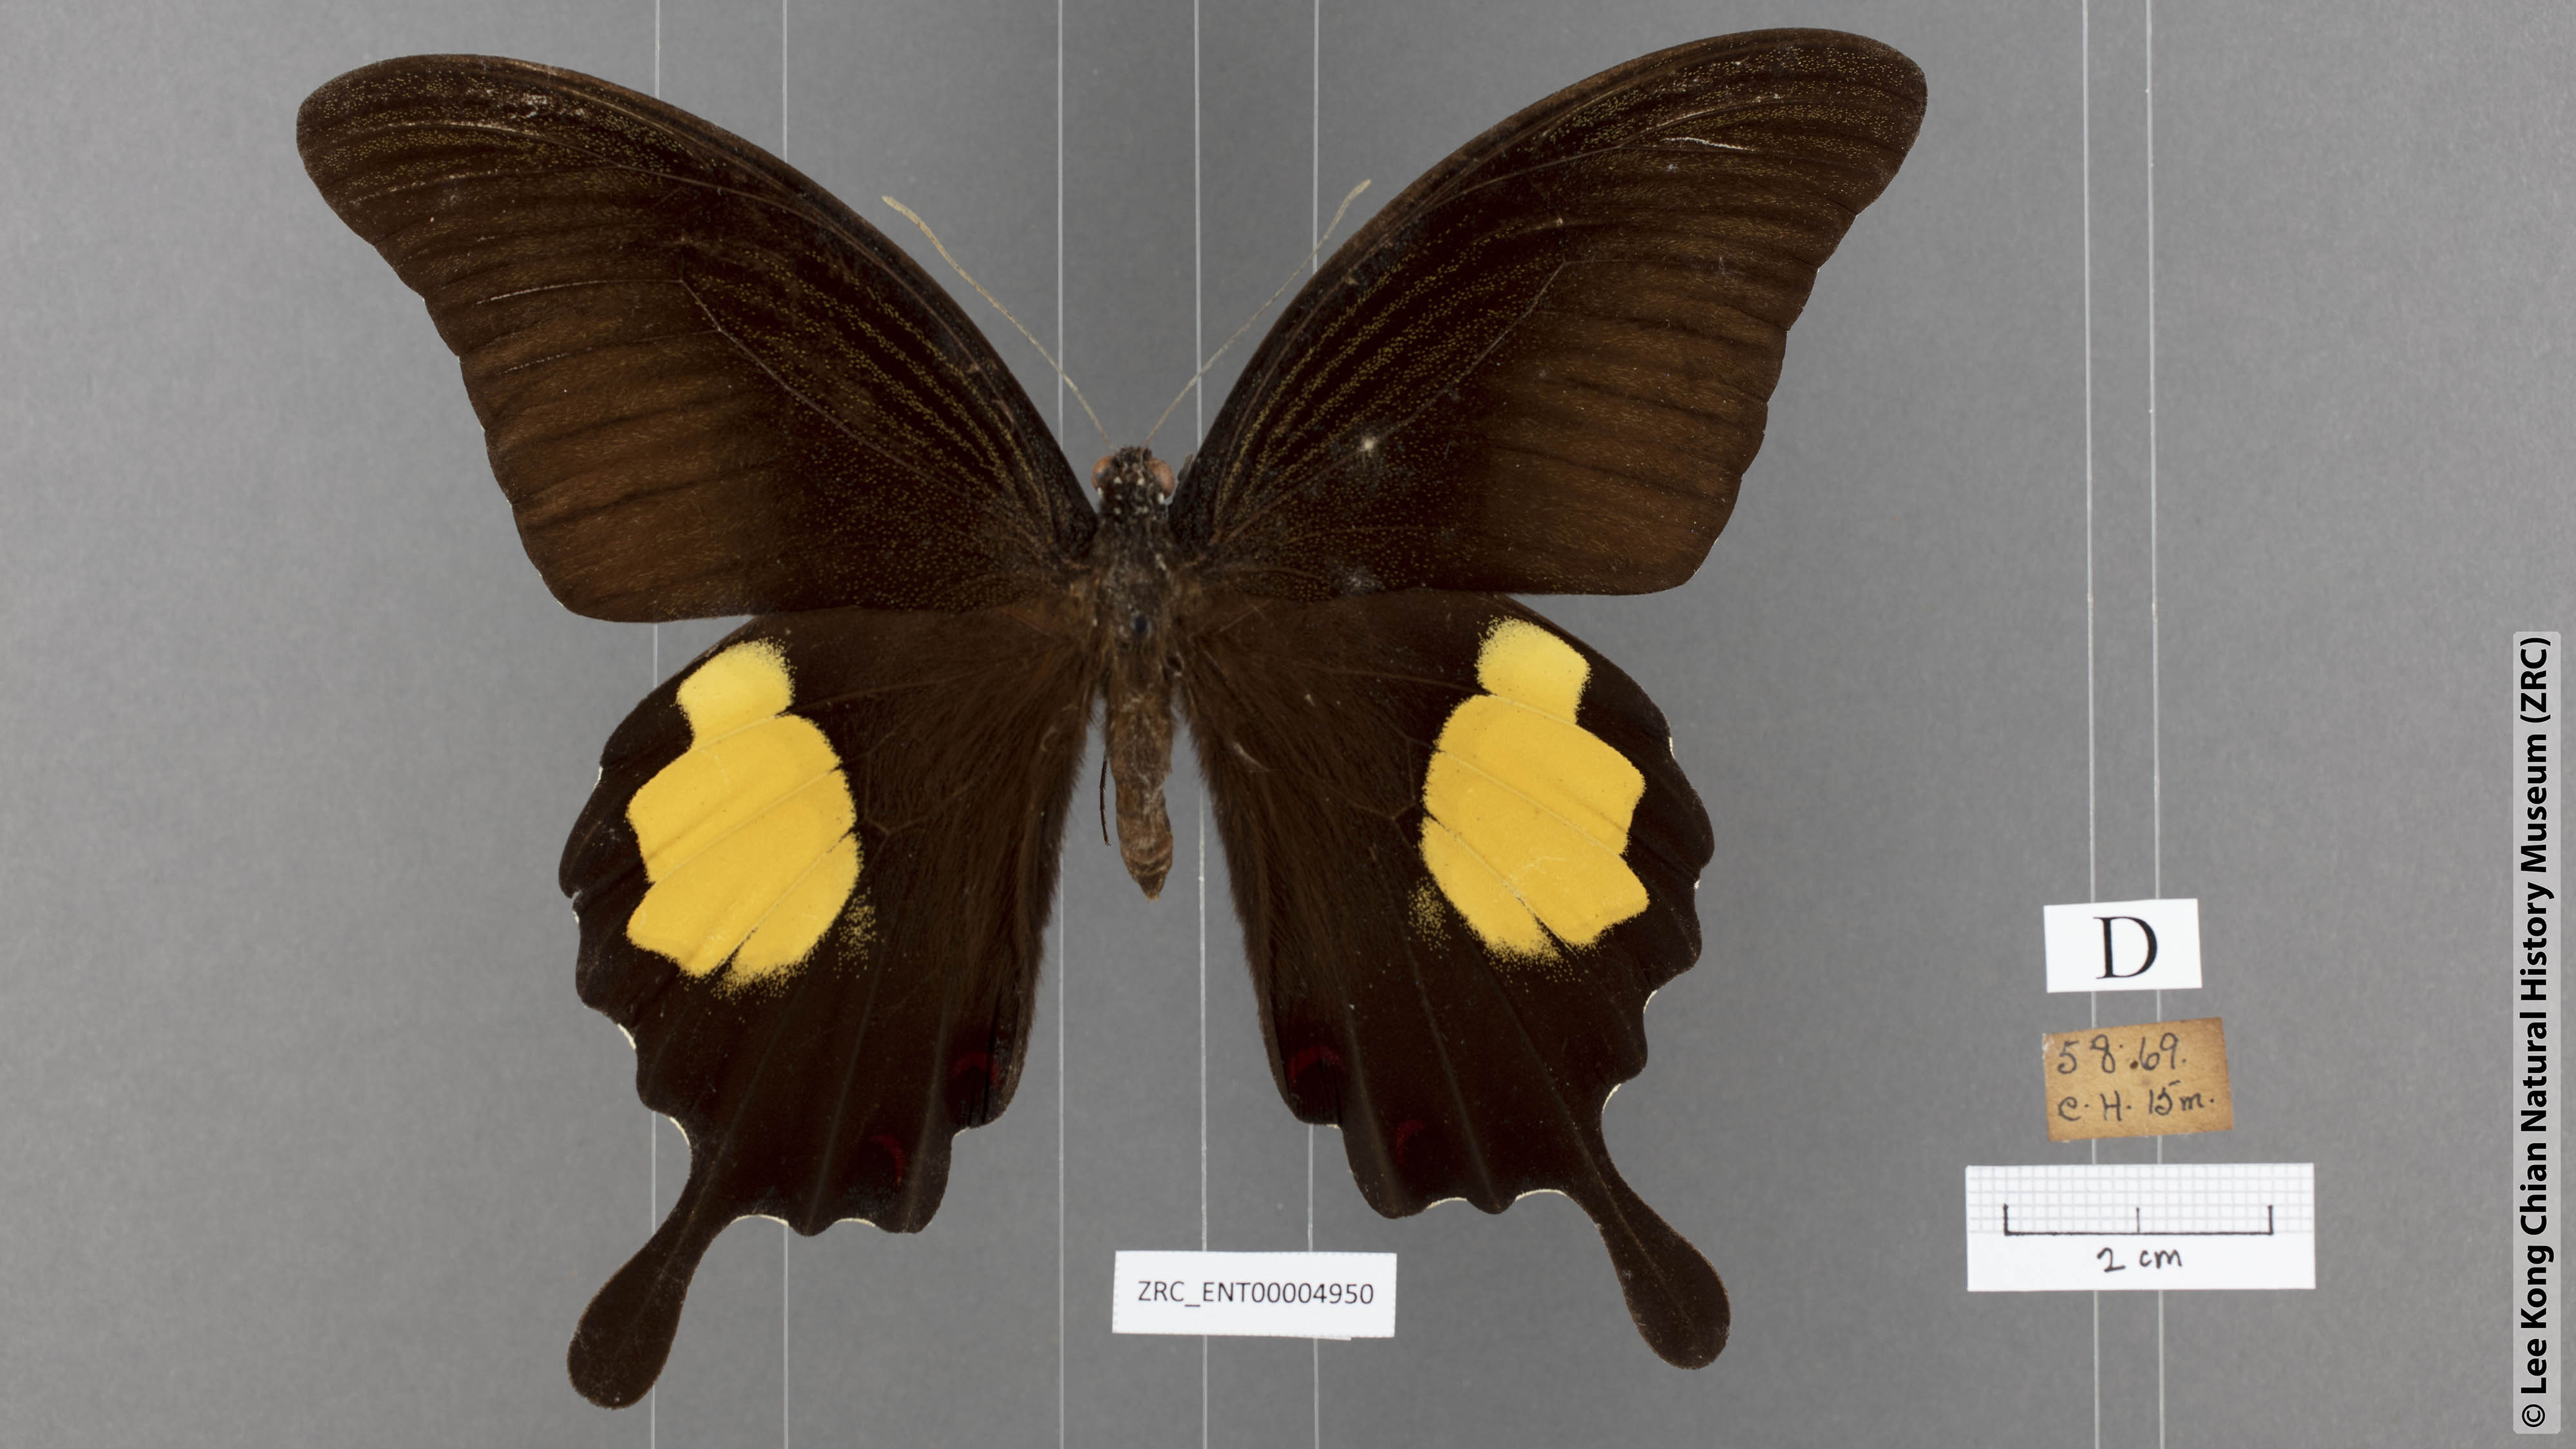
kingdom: Animalia
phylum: Arthropoda
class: Insecta
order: Lepidoptera
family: Papilionidae
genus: Papilio
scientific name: Papilio iswara
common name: Great helen swallowtail
